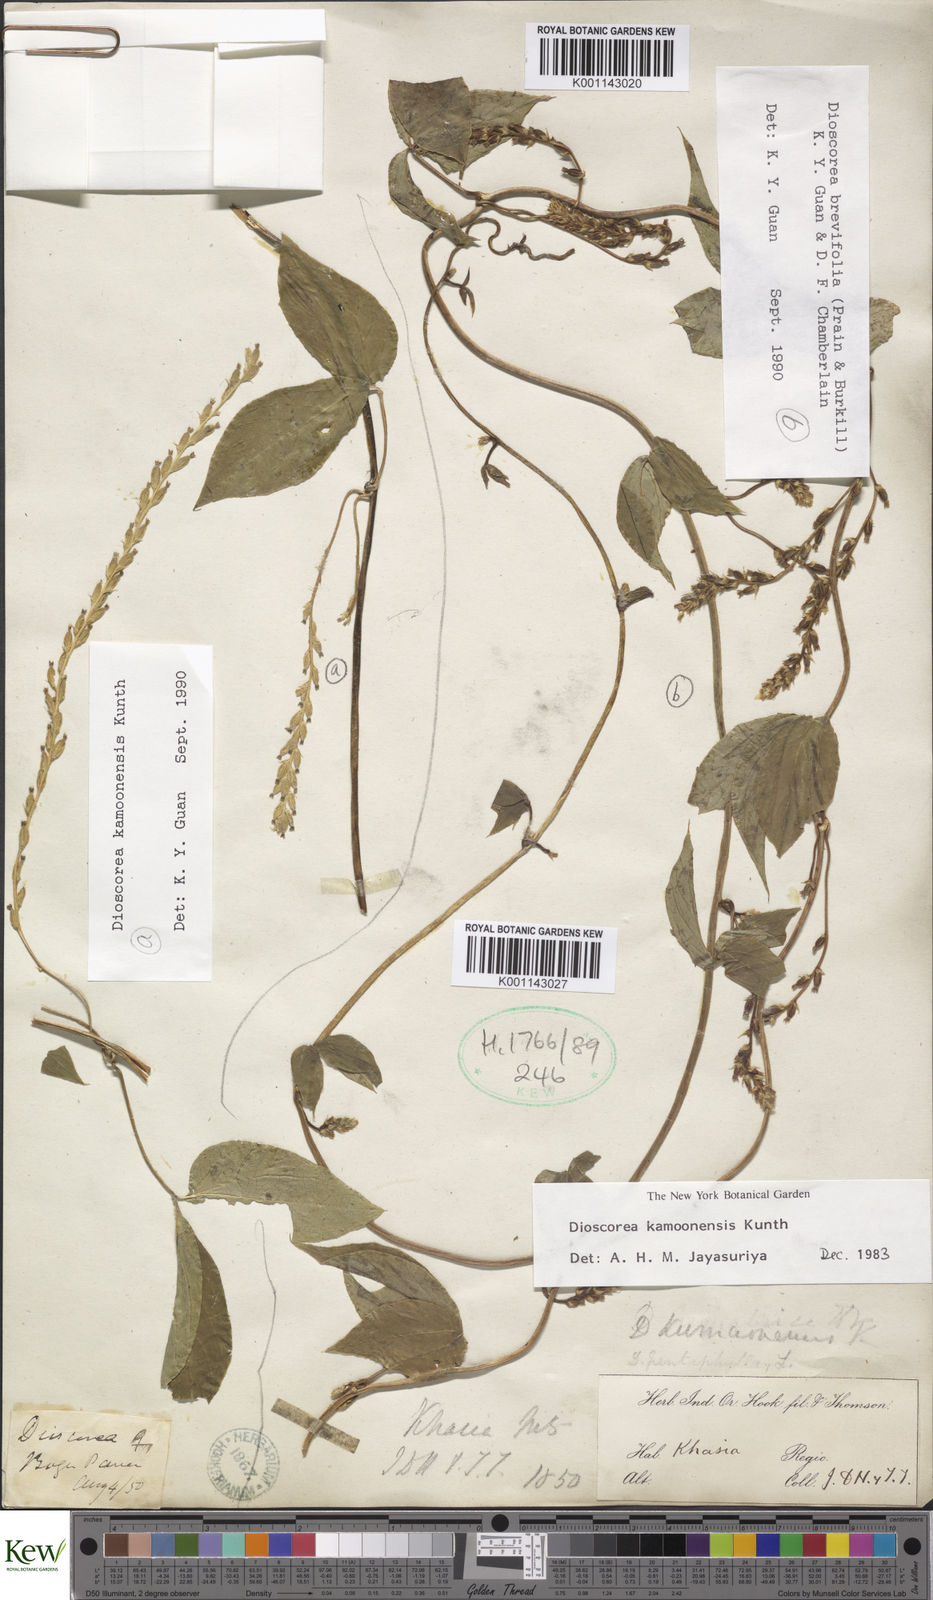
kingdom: Plantae
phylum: Tracheophyta
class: Liliopsida
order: Dioscoreales
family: Dioscoreaceae
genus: Dioscorea
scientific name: Dioscorea kamoonensis
